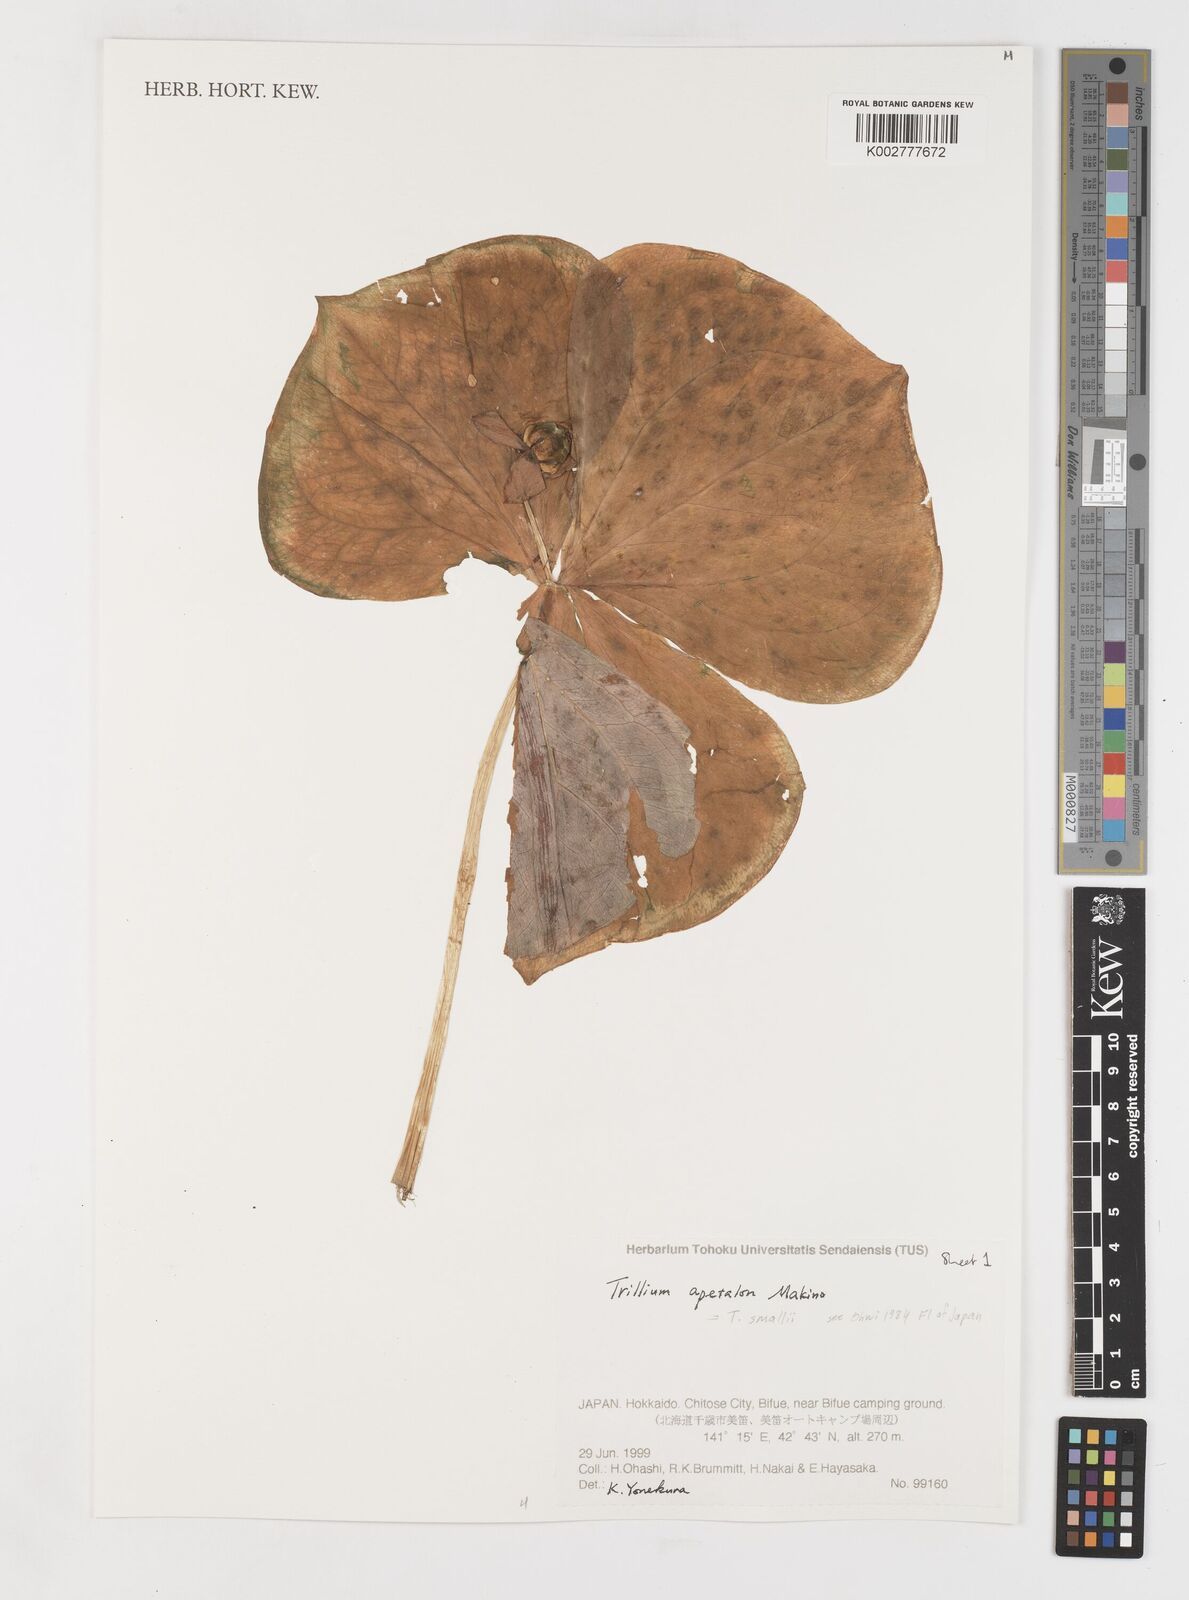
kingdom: Plantae
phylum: Tracheophyta
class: Liliopsida
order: Liliales
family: Melanthiaceae
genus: Trillium
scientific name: Trillium smallii
